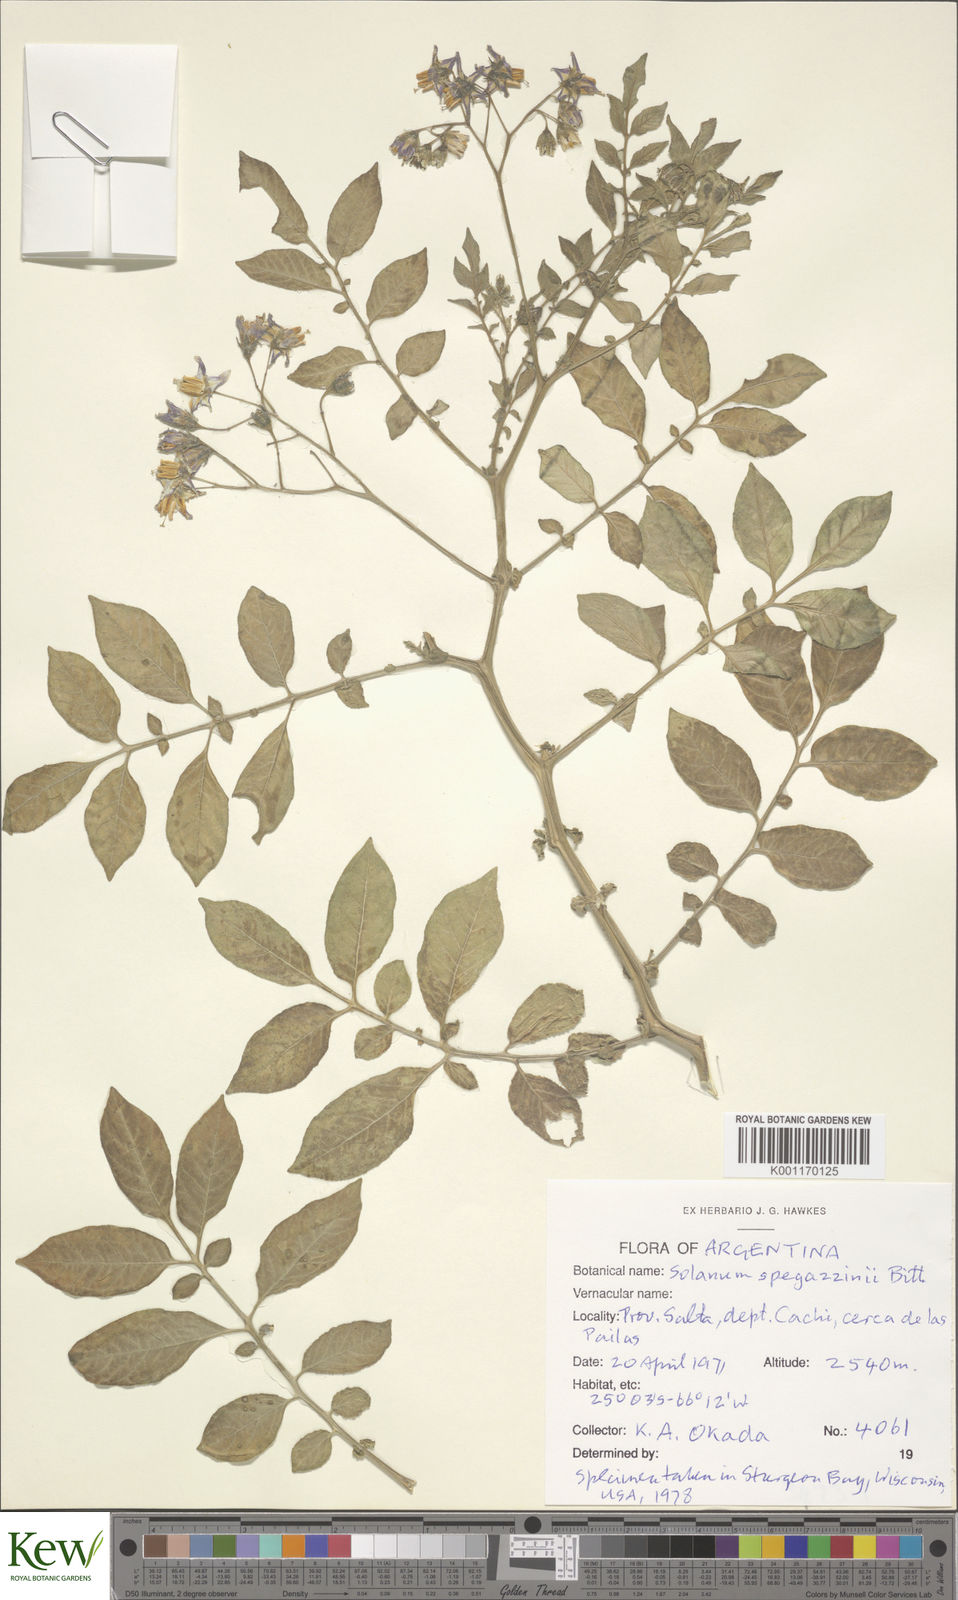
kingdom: Plantae
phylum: Tracheophyta
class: Magnoliopsida
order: Solanales
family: Solanaceae
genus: Solanum
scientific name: Solanum brevicaule
